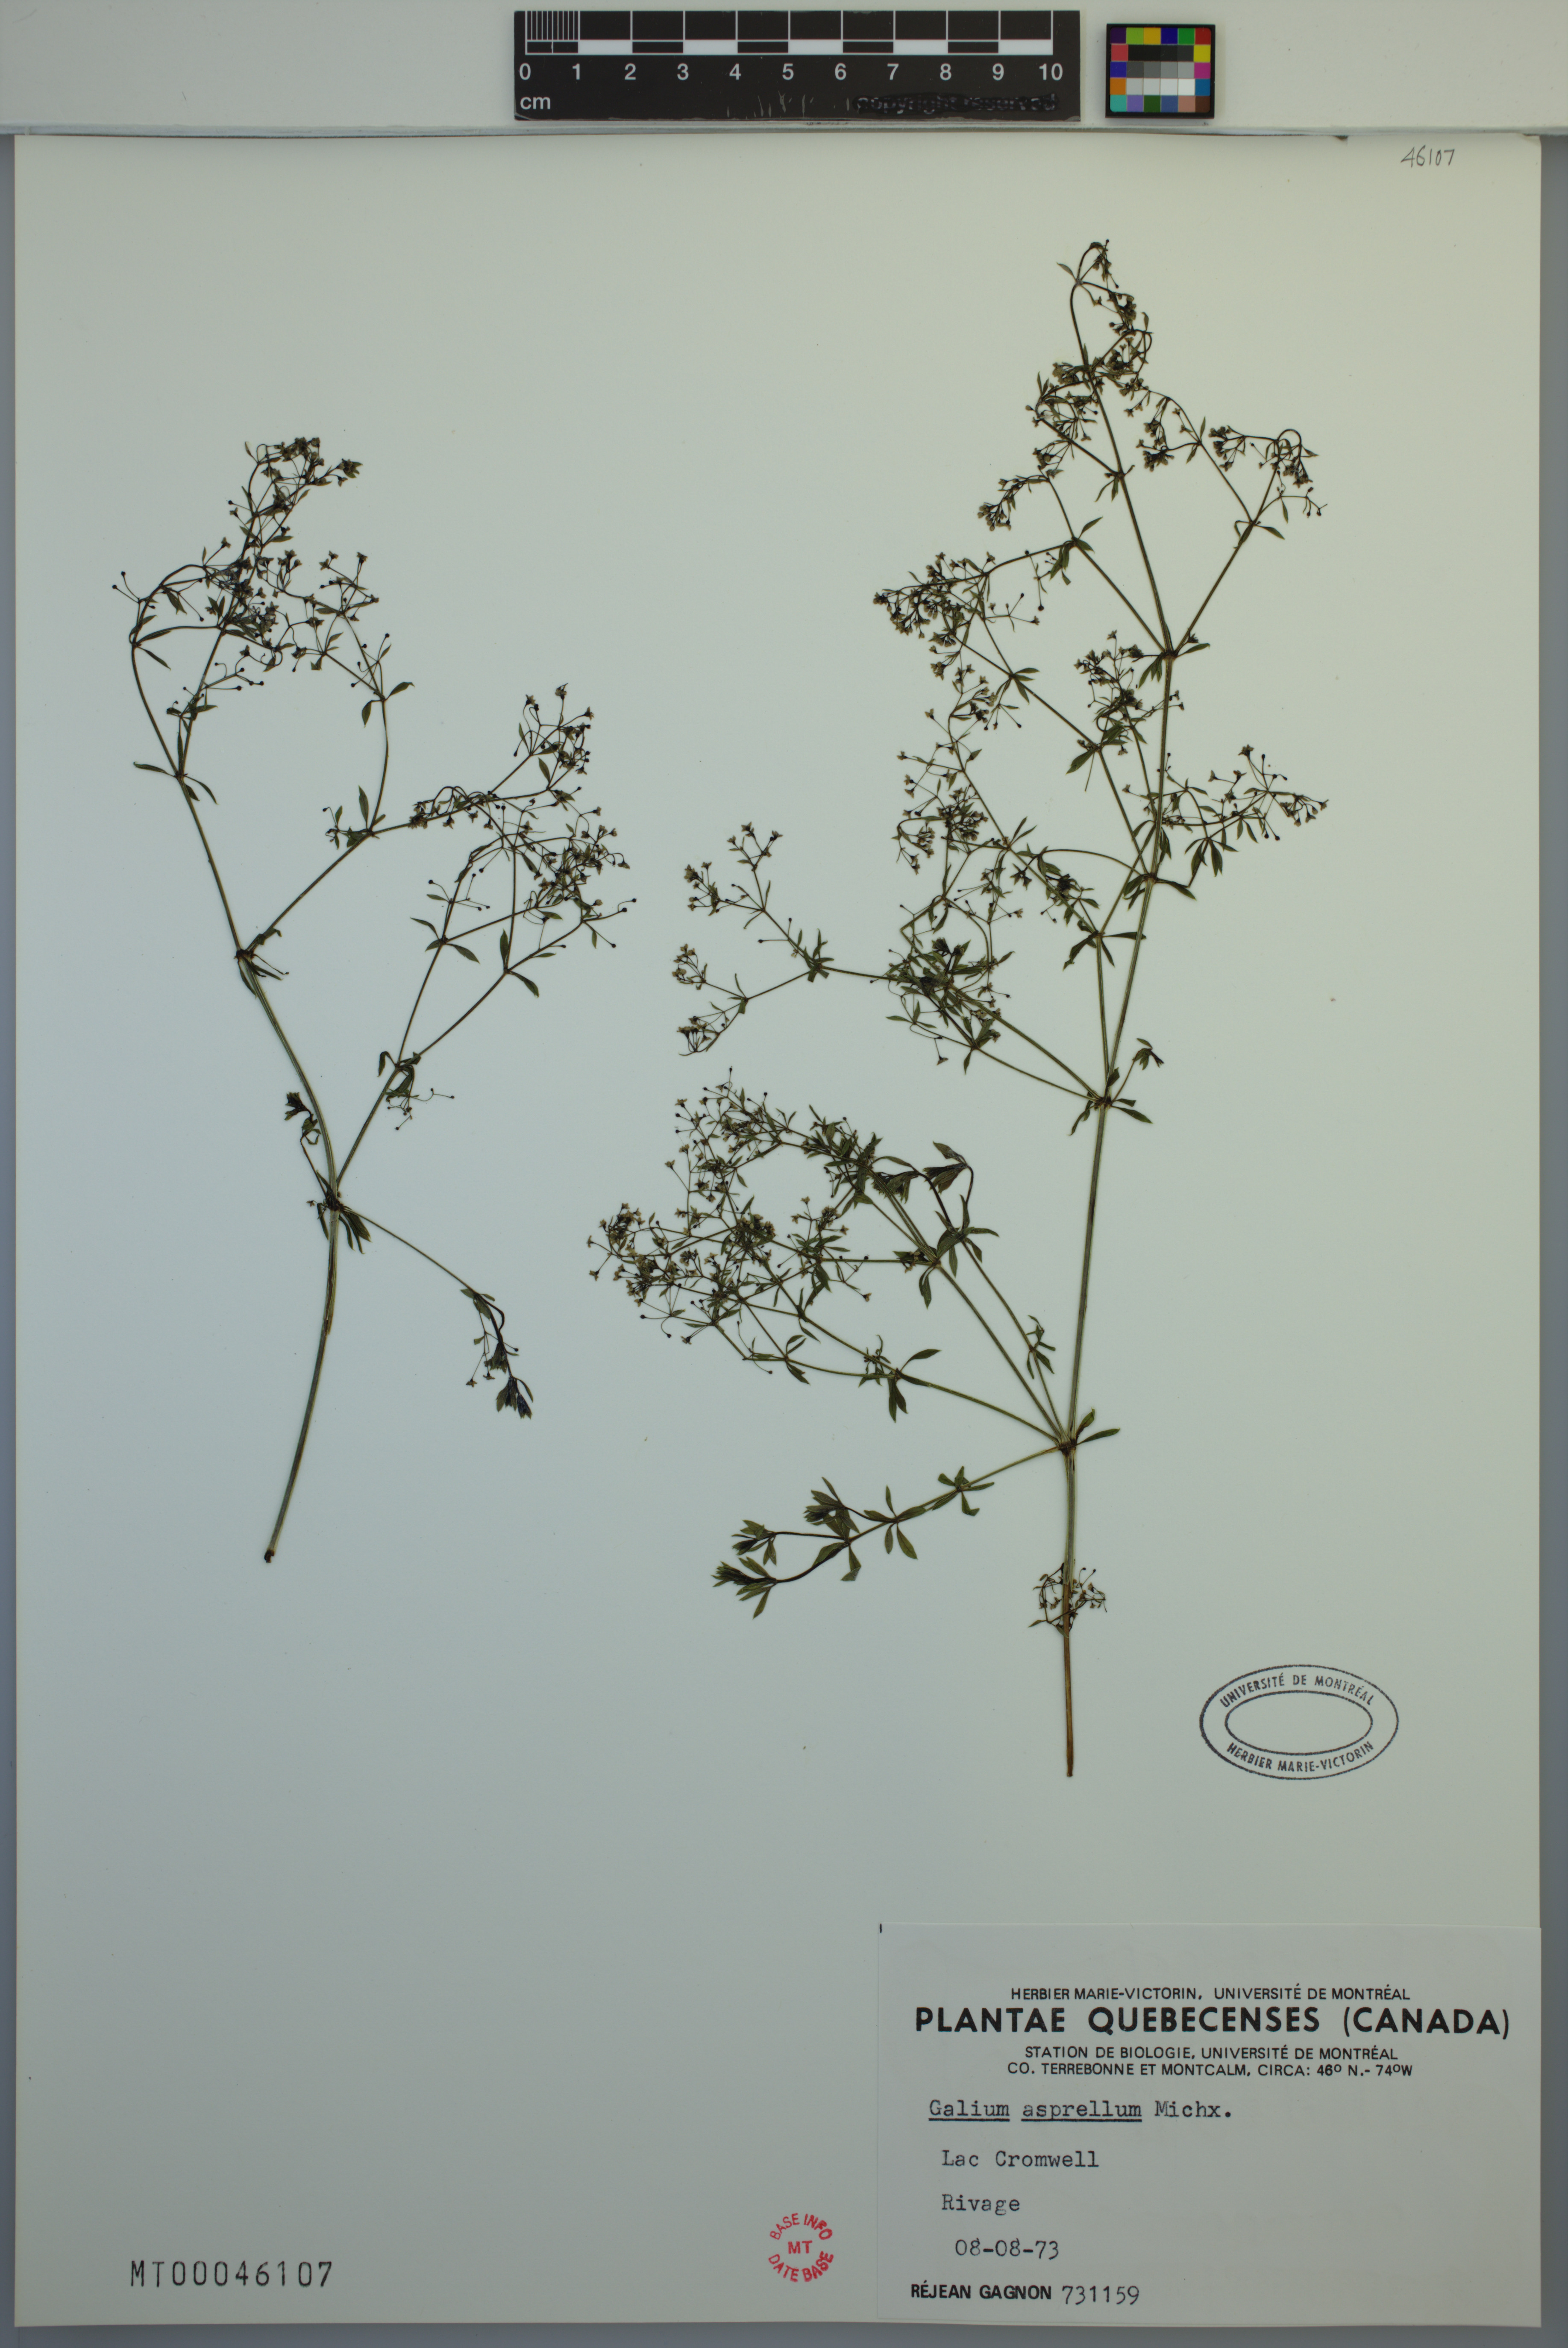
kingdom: Plantae
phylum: Tracheophyta
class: Magnoliopsida
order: Gentianales
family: Rubiaceae
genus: Galium
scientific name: Galium asprellum
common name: Rough bedstraw
